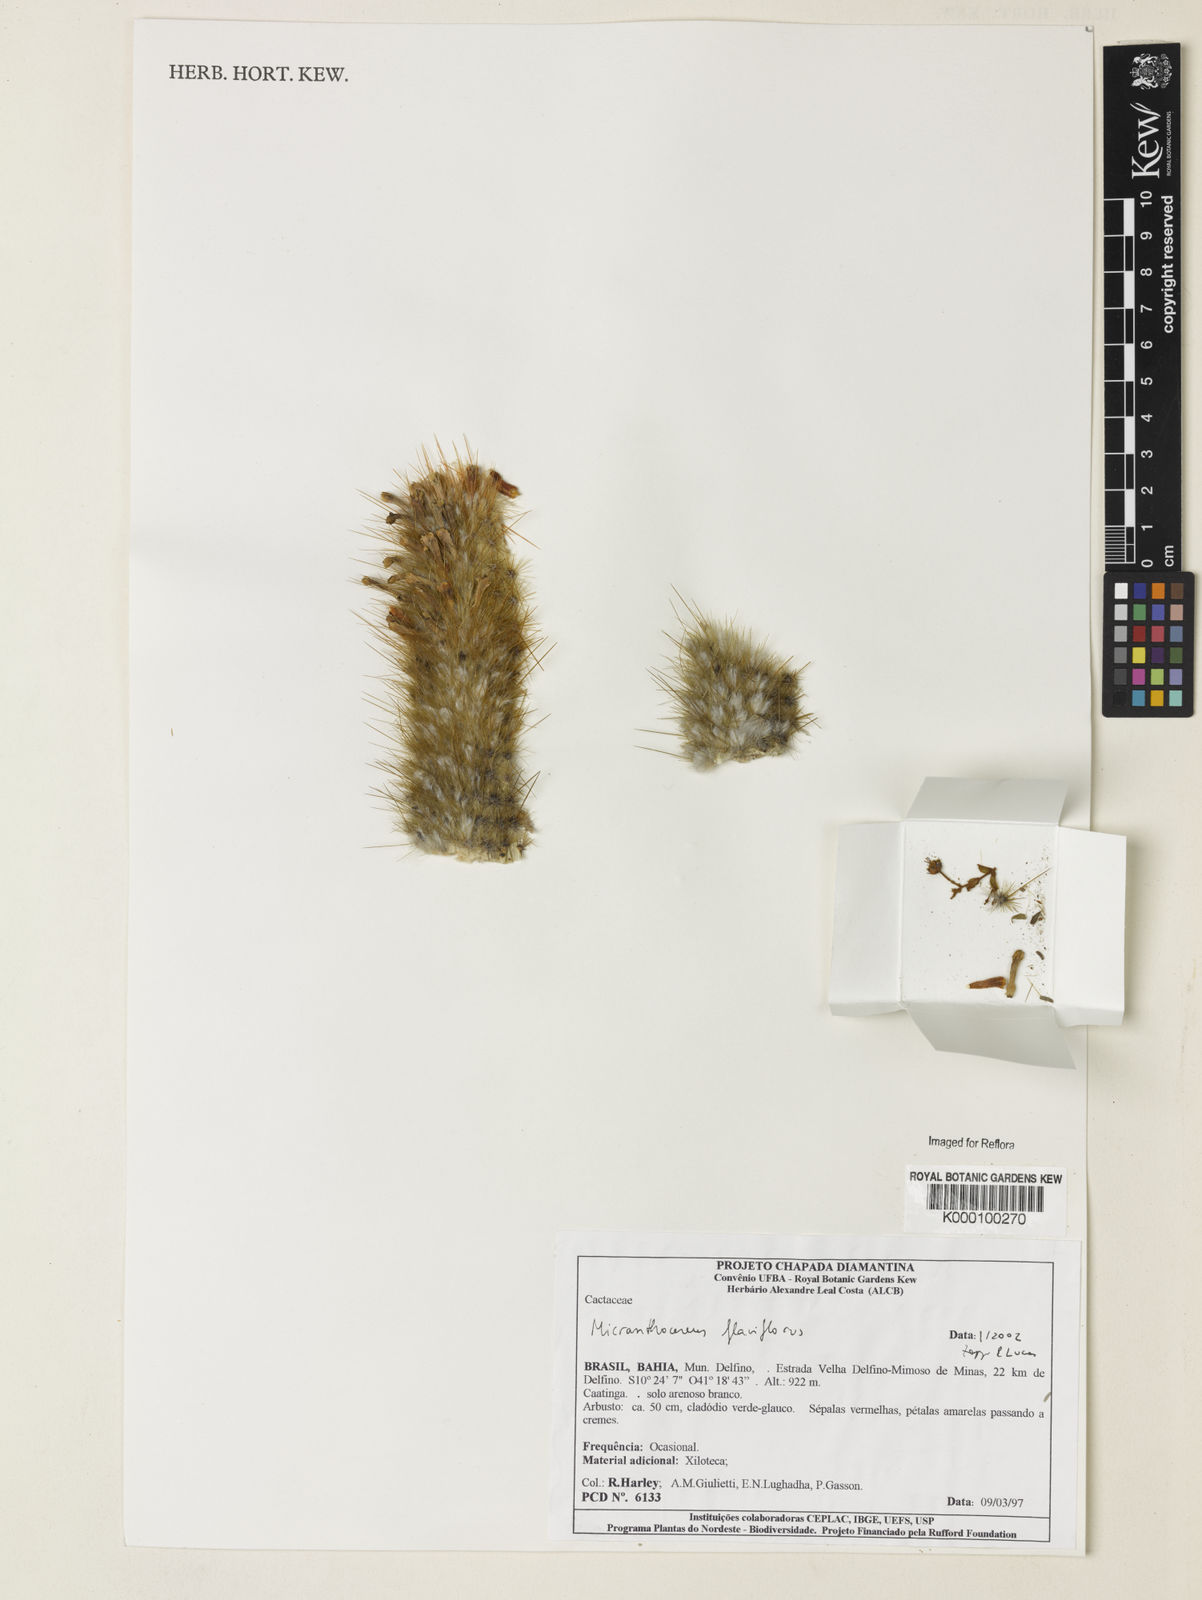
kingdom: Plantae
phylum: Tracheophyta
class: Magnoliopsida
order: Caryophyllales
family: Cactaceae
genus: Micranthocereus
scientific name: Micranthocereus flaviflorus
